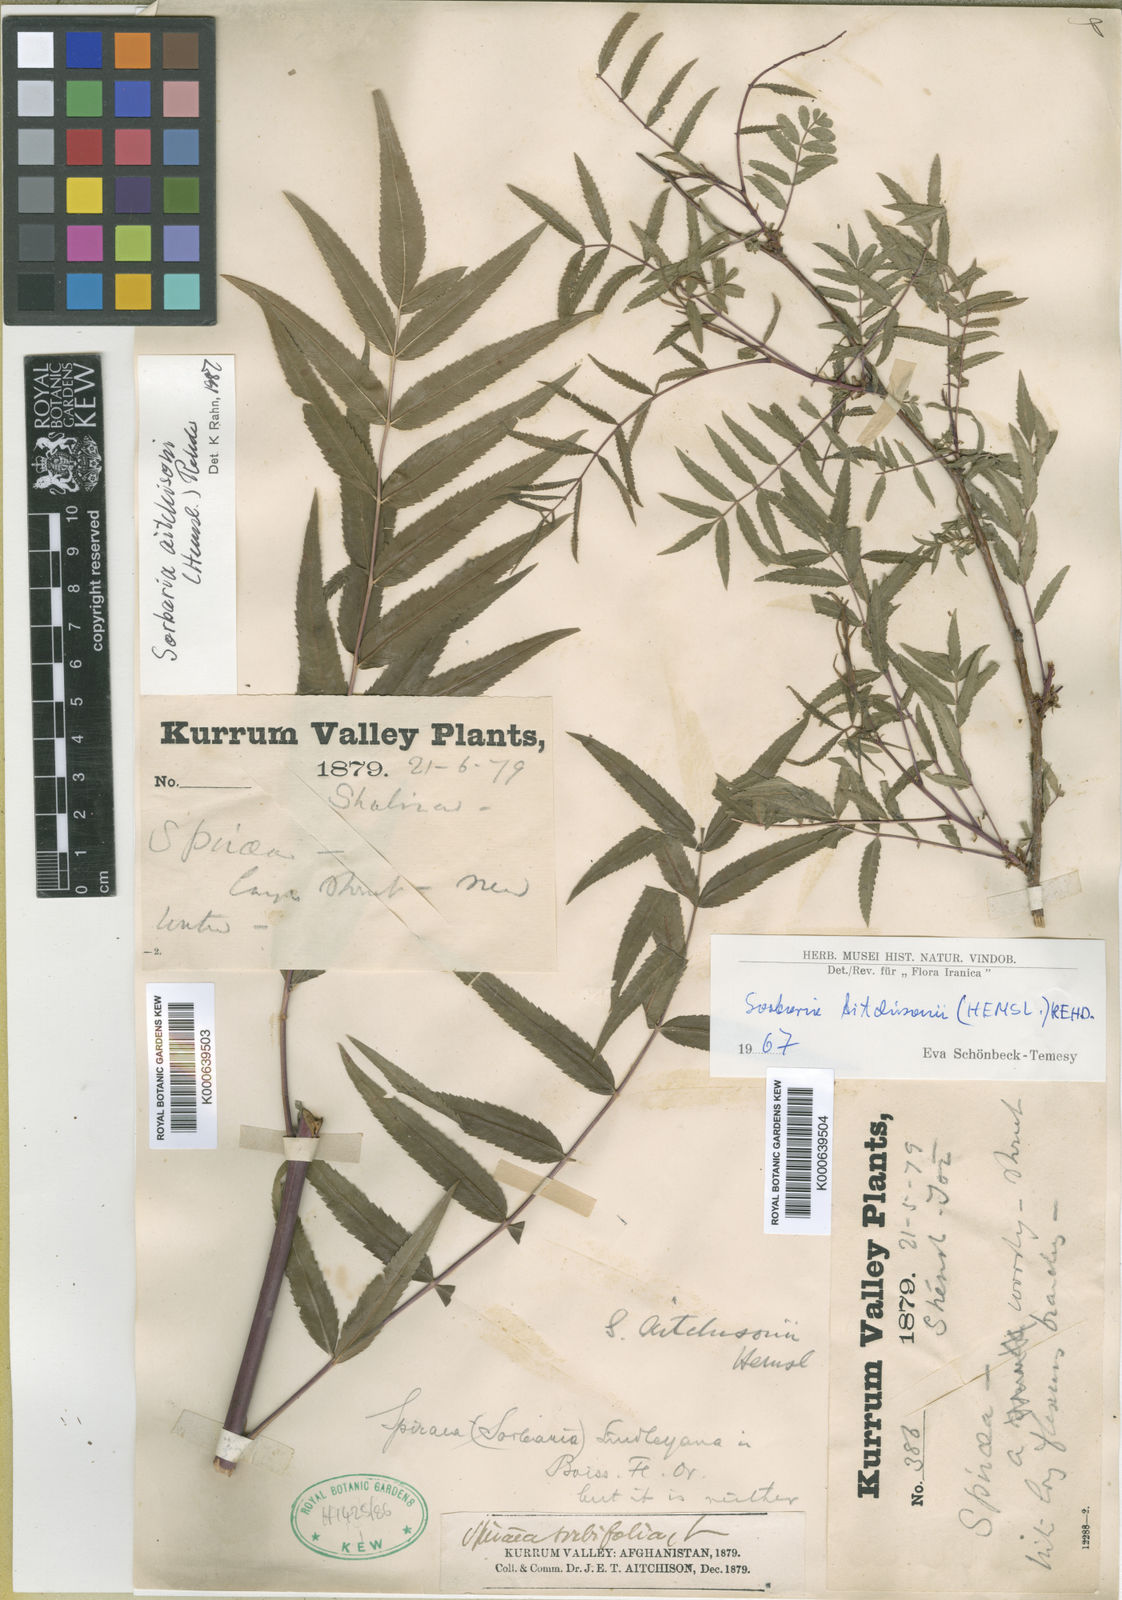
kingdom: Plantae
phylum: Tracheophyta
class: Magnoliopsida
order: Rosales
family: Rosaceae
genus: Sorbaria
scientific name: Sorbaria tomentosa
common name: Himalayan sorbaria
